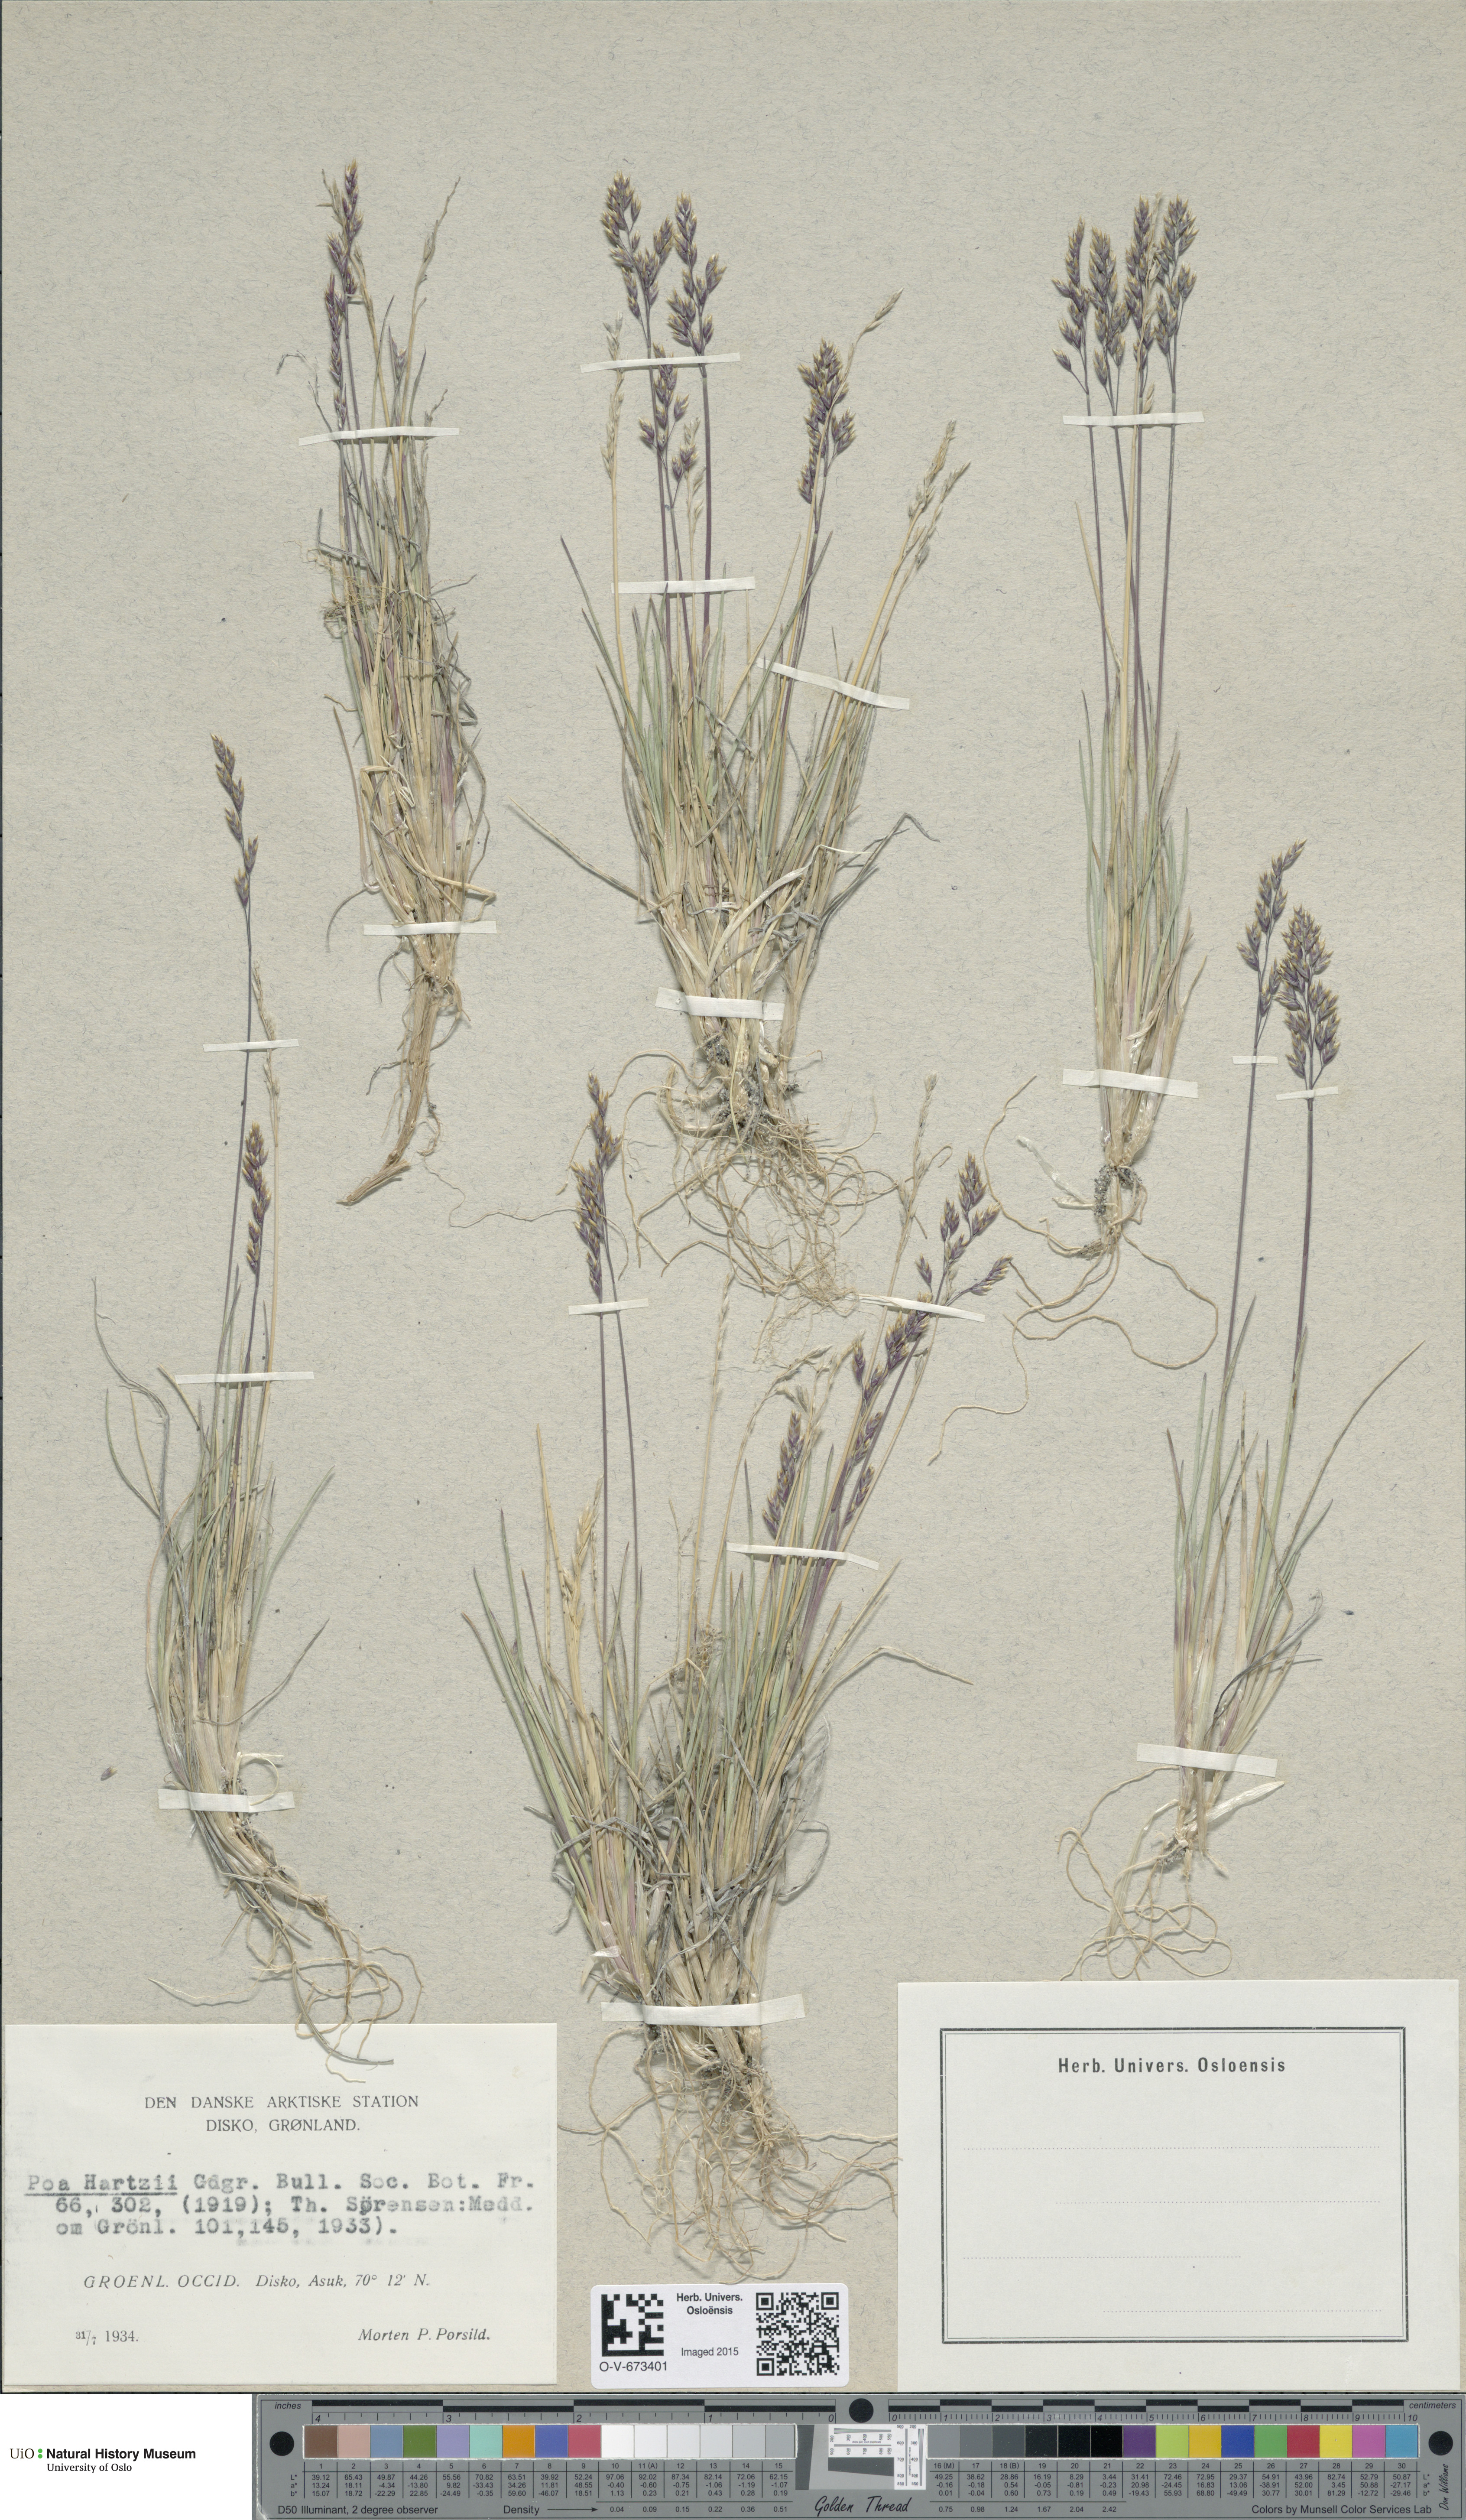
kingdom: Plantae
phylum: Tracheophyta
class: Liliopsida
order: Poales
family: Poaceae
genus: Poa
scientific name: Poa hartzii
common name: Hartz's bluegrass
